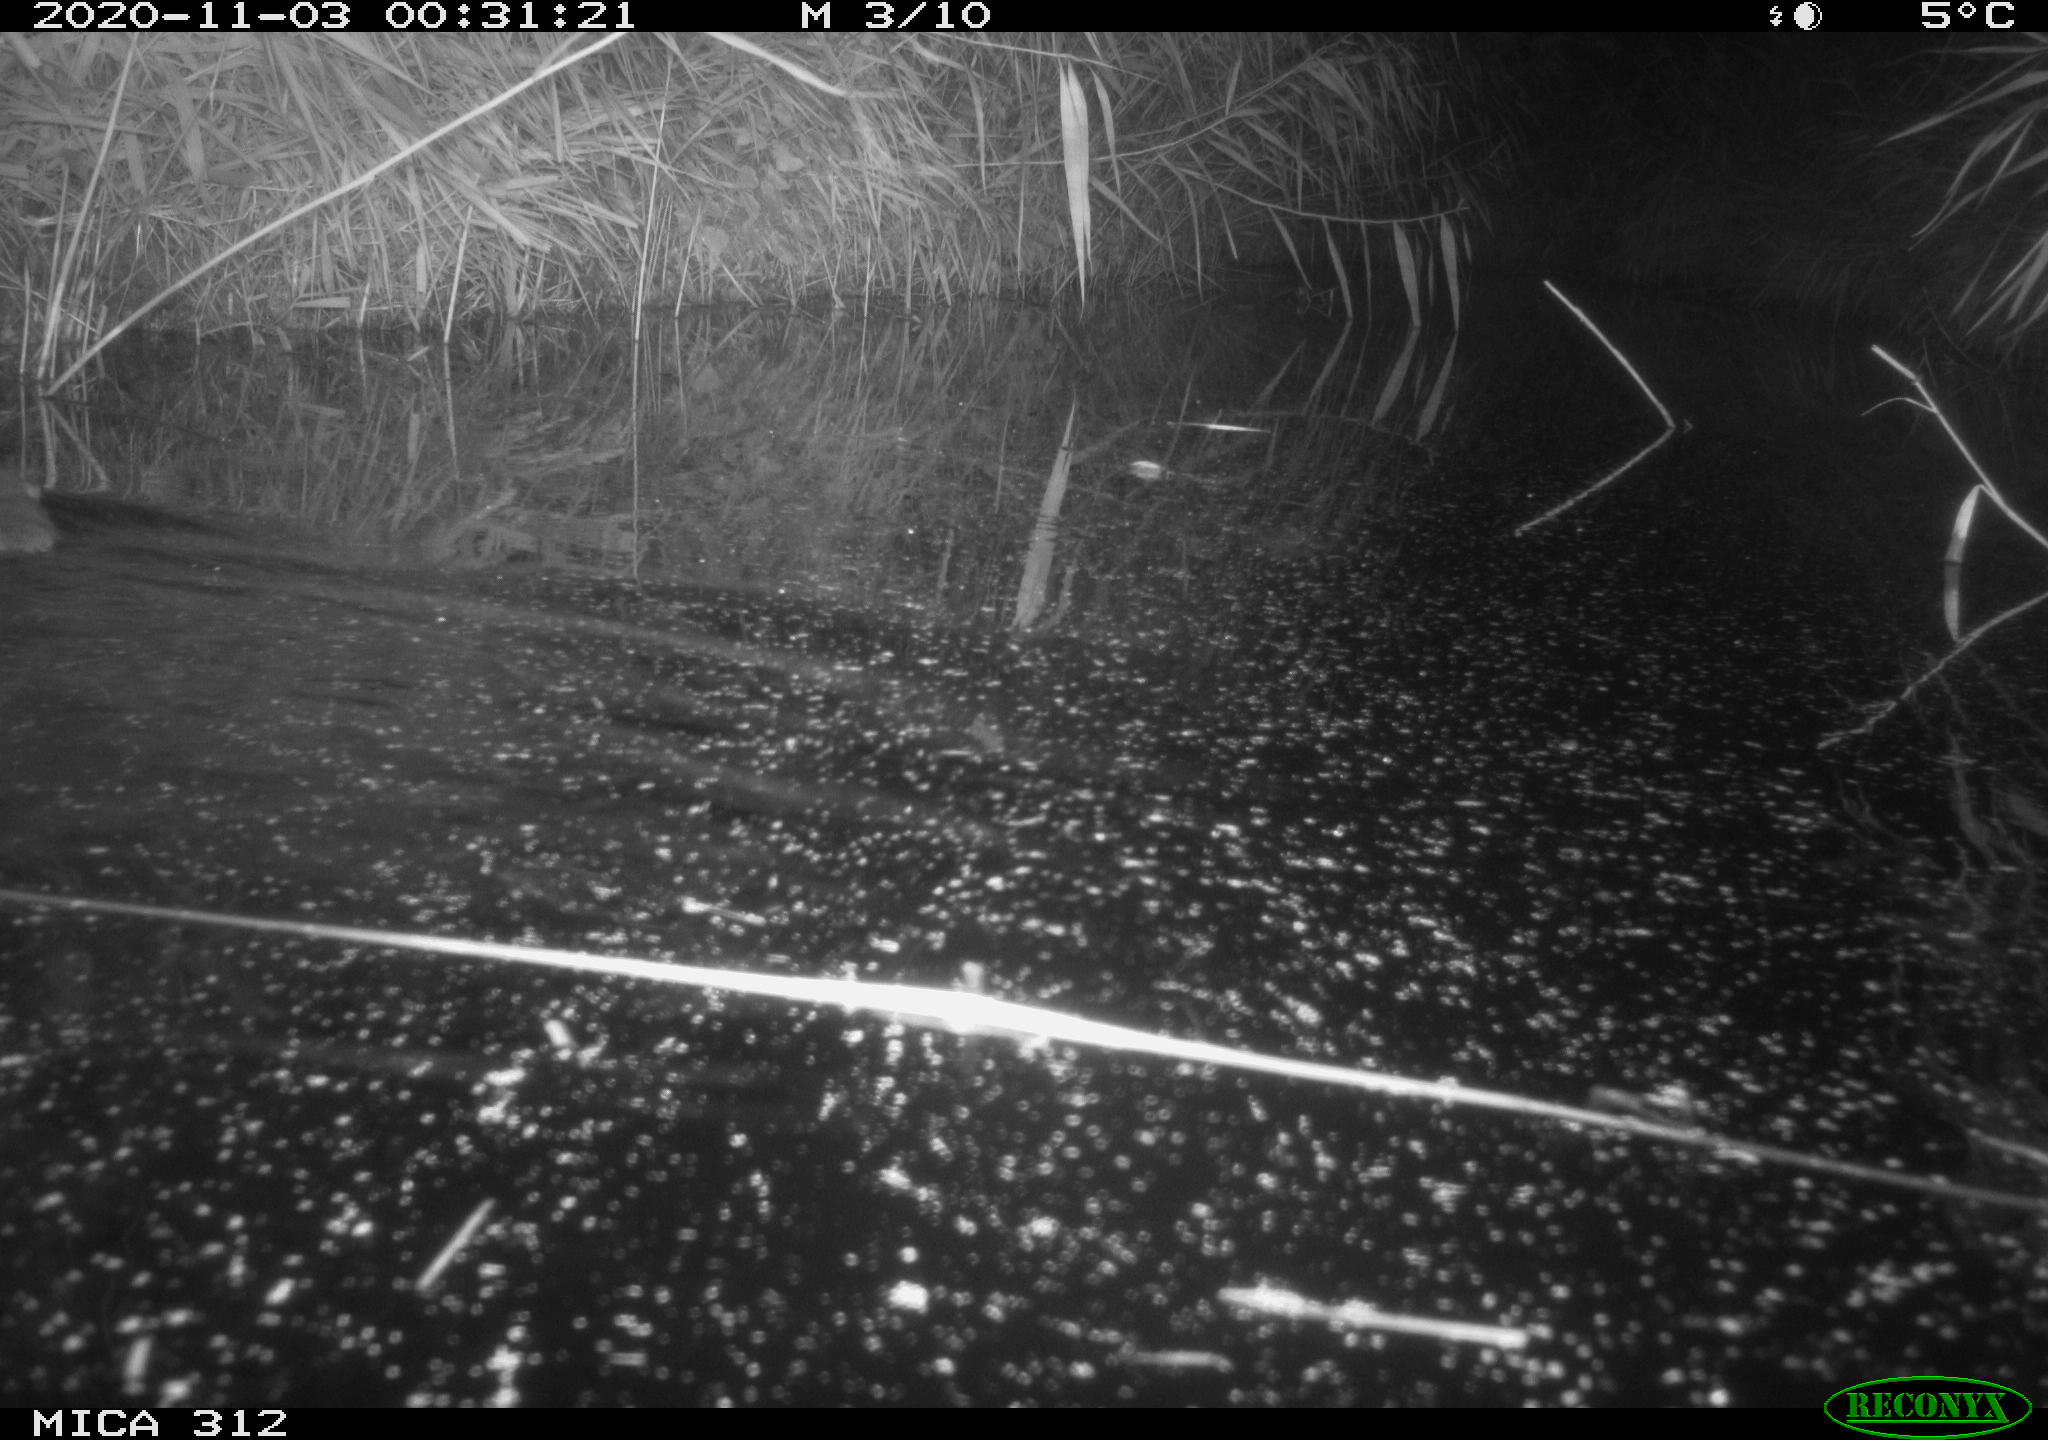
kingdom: Animalia
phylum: Chordata
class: Mammalia
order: Rodentia
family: Cricetidae
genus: Ondatra
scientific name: Ondatra zibethicus
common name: Muskrat
